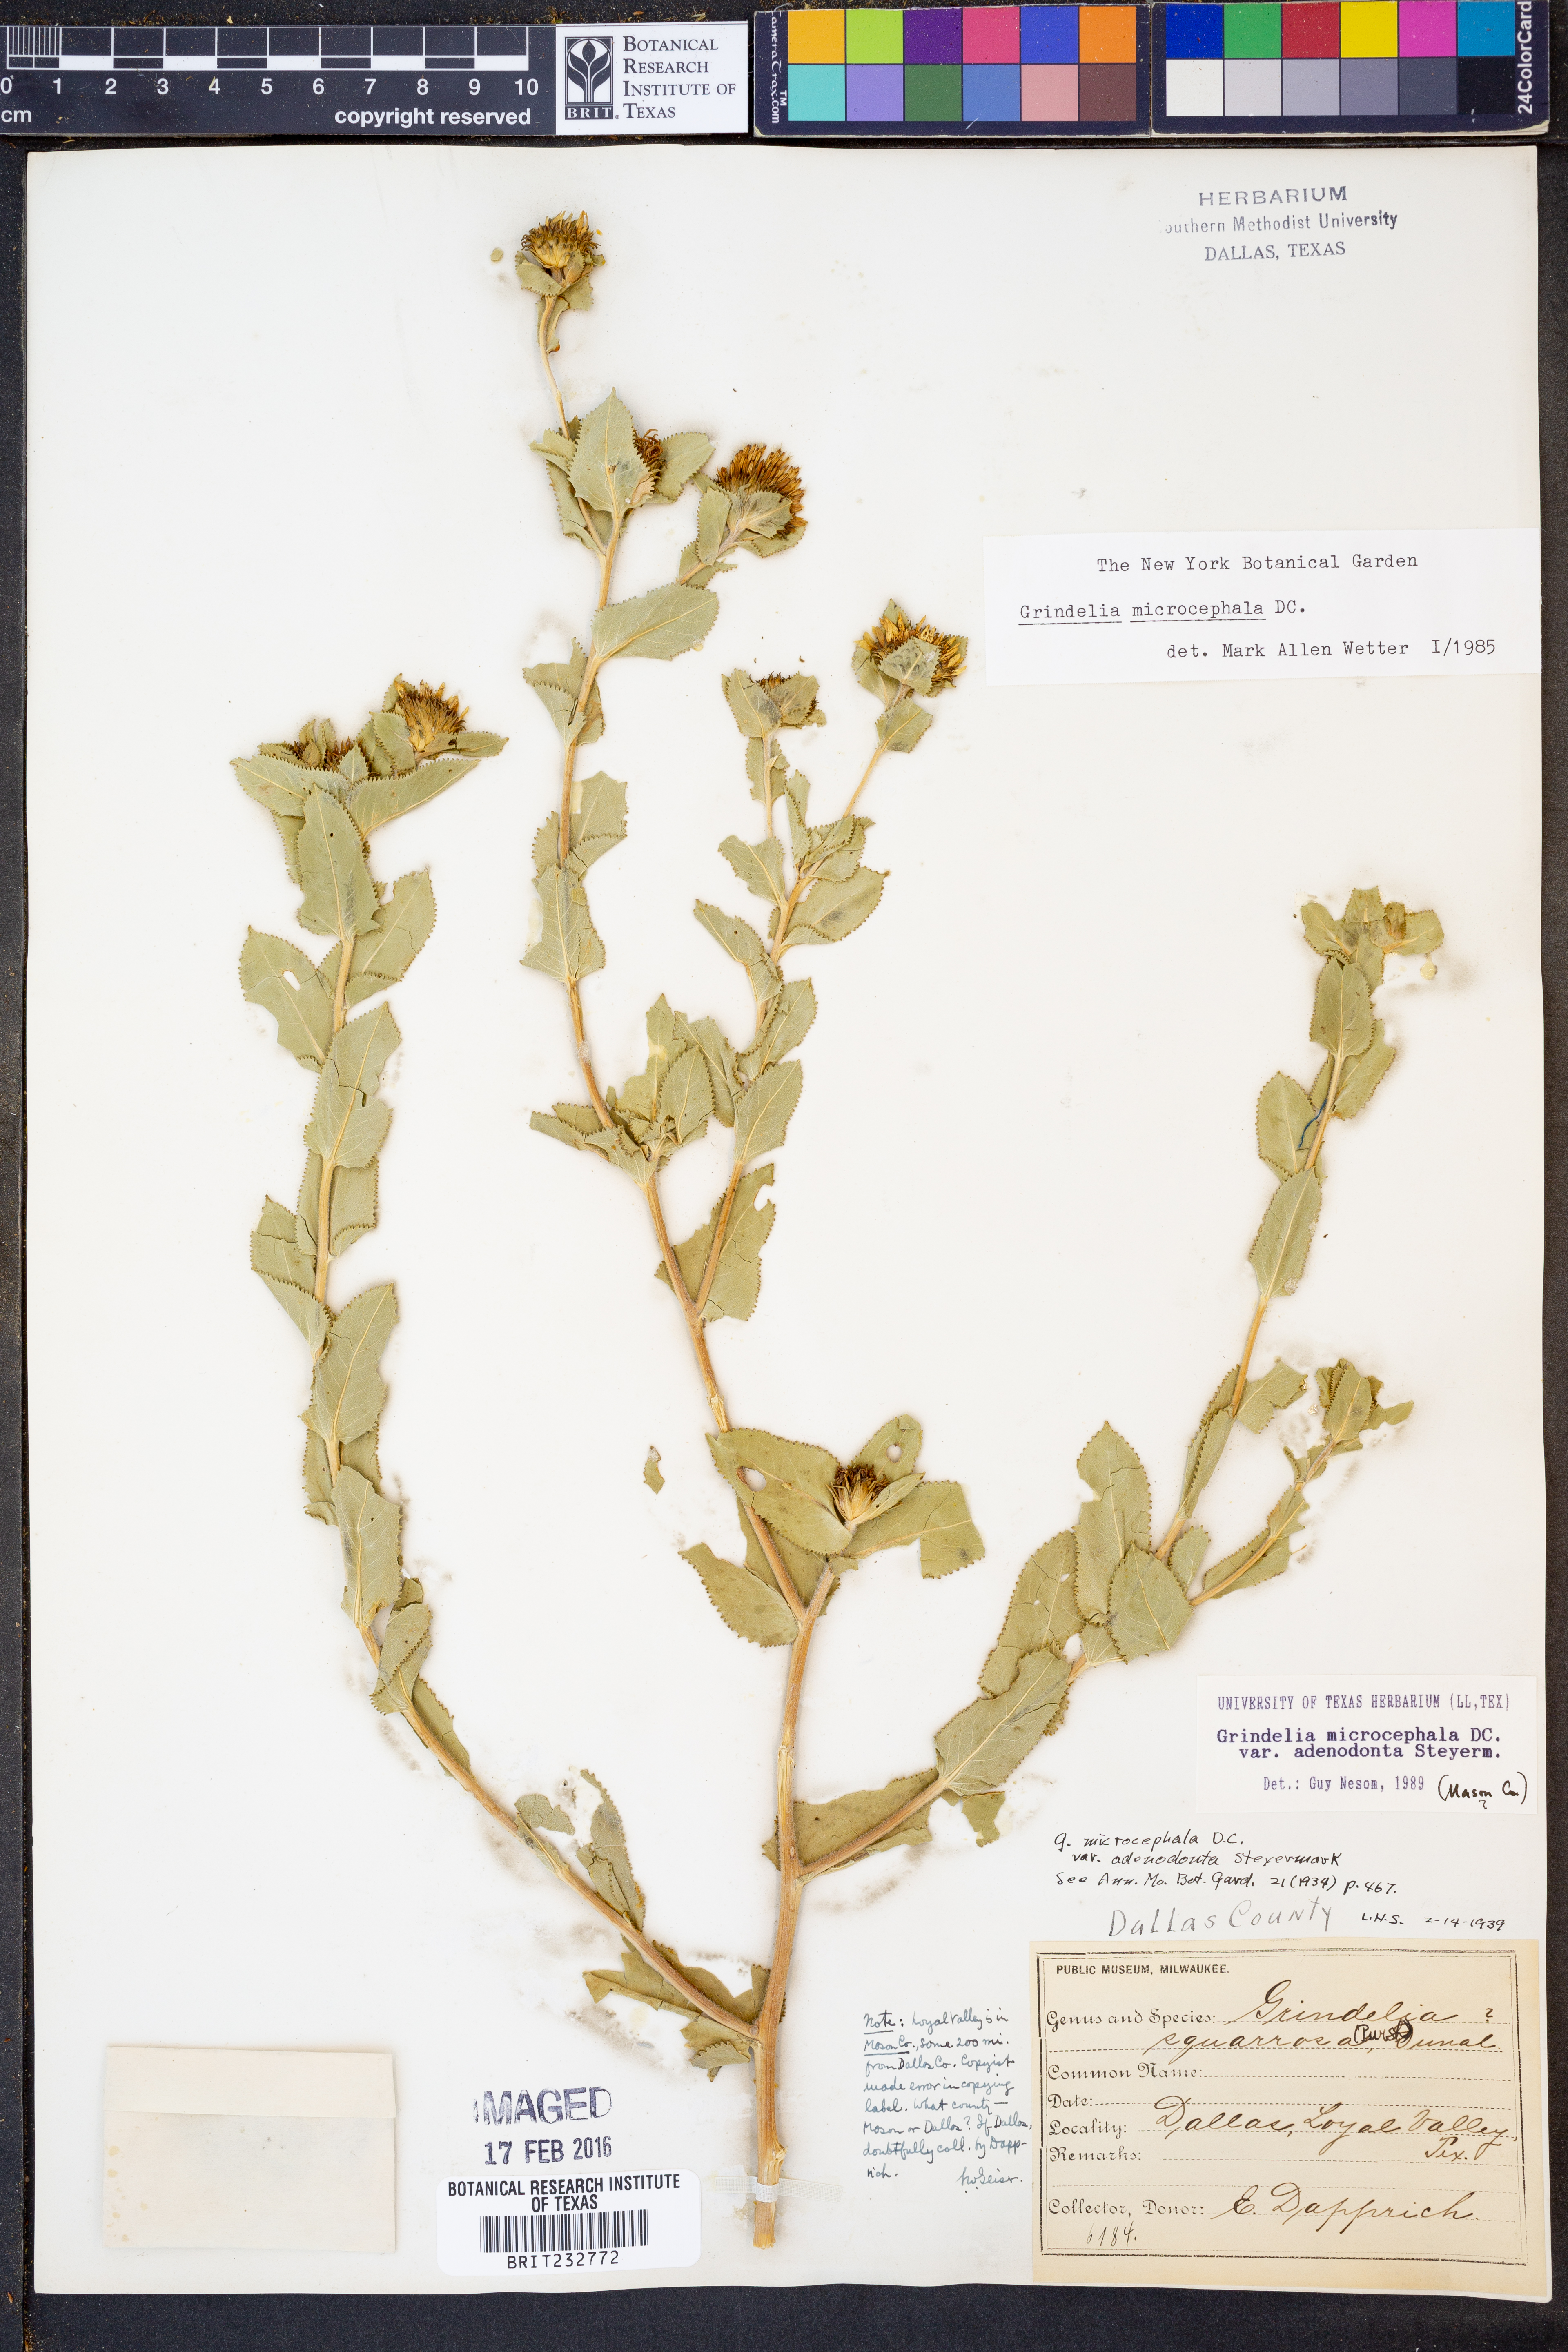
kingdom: Plantae
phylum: Tracheophyta
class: Magnoliopsida
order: Asterales
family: Asteraceae
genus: Grindelia
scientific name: Grindelia adenodonta
